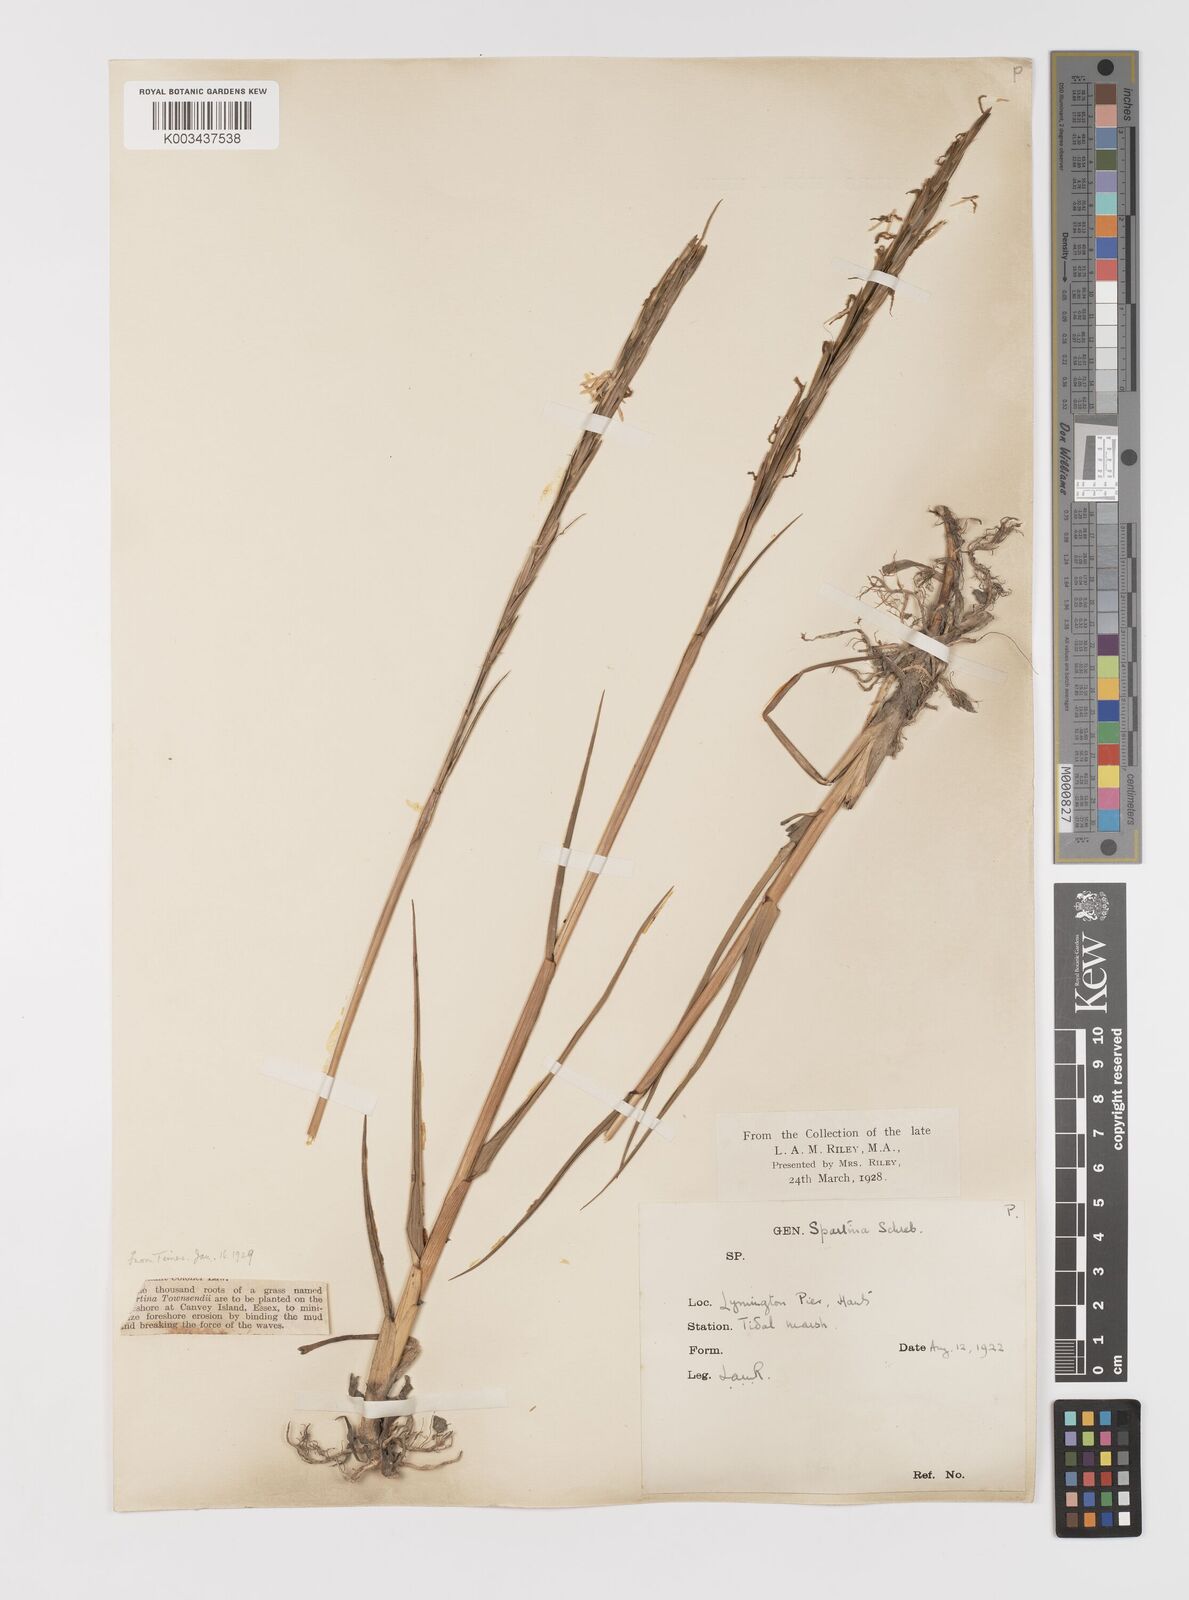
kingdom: Plantae
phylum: Tracheophyta
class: Liliopsida
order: Poales
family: Poaceae
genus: Sporobolus
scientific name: Sporobolus anglicus
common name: English cordgrass
